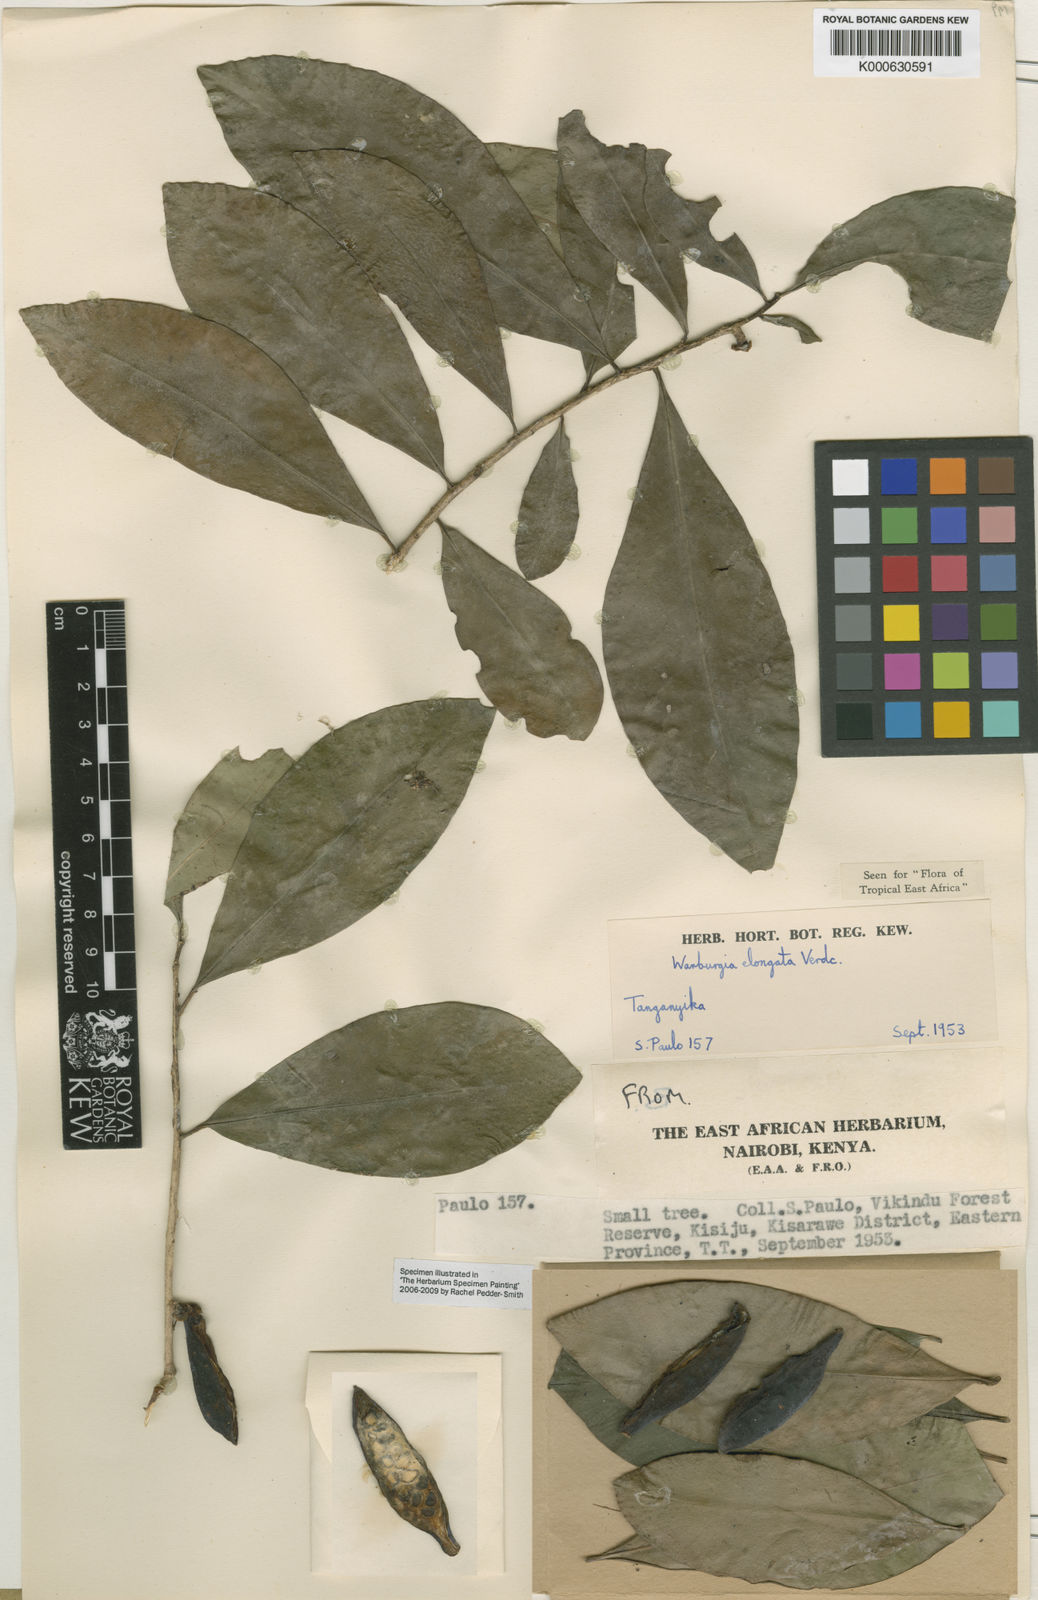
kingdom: Plantae
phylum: Tracheophyta
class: Magnoliopsida
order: Canellales
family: Canellaceae
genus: Warburgia
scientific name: Warburgia elongata
